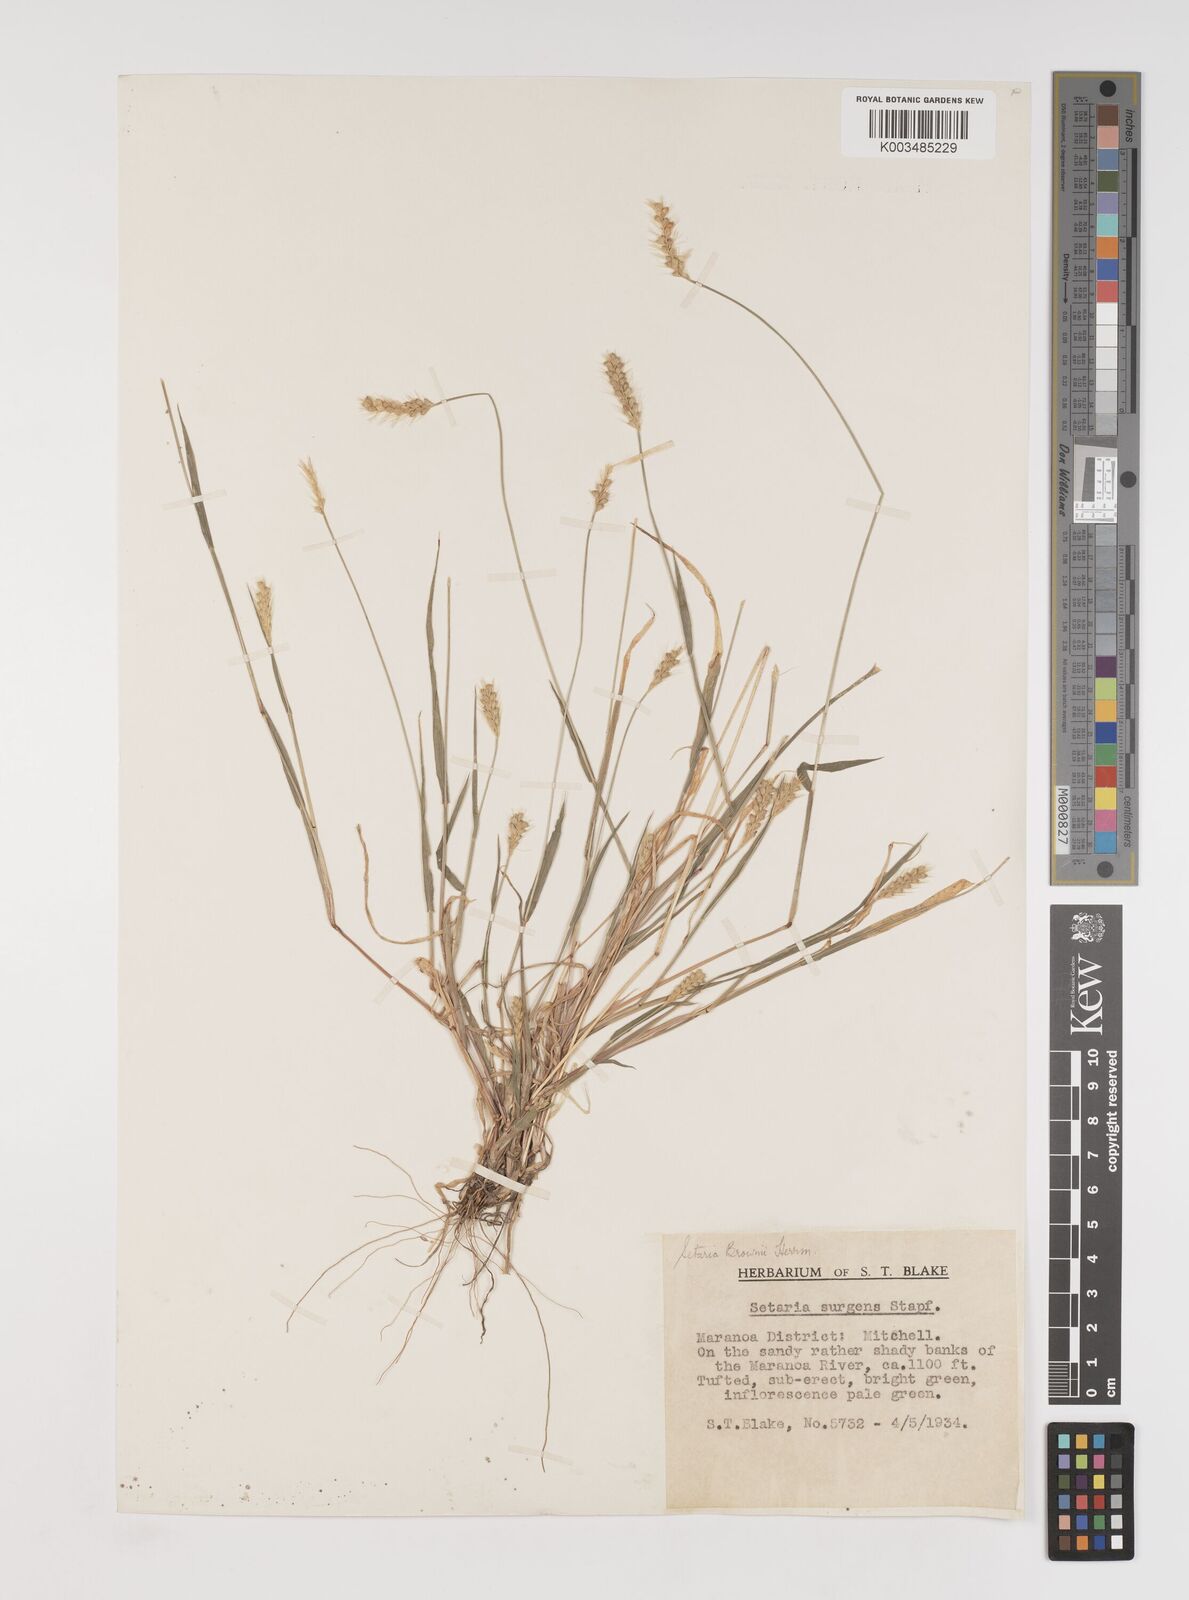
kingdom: Plantae
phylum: Tracheophyta
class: Liliopsida
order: Poales
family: Poaceae
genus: Setaria
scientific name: Setaria surgens
